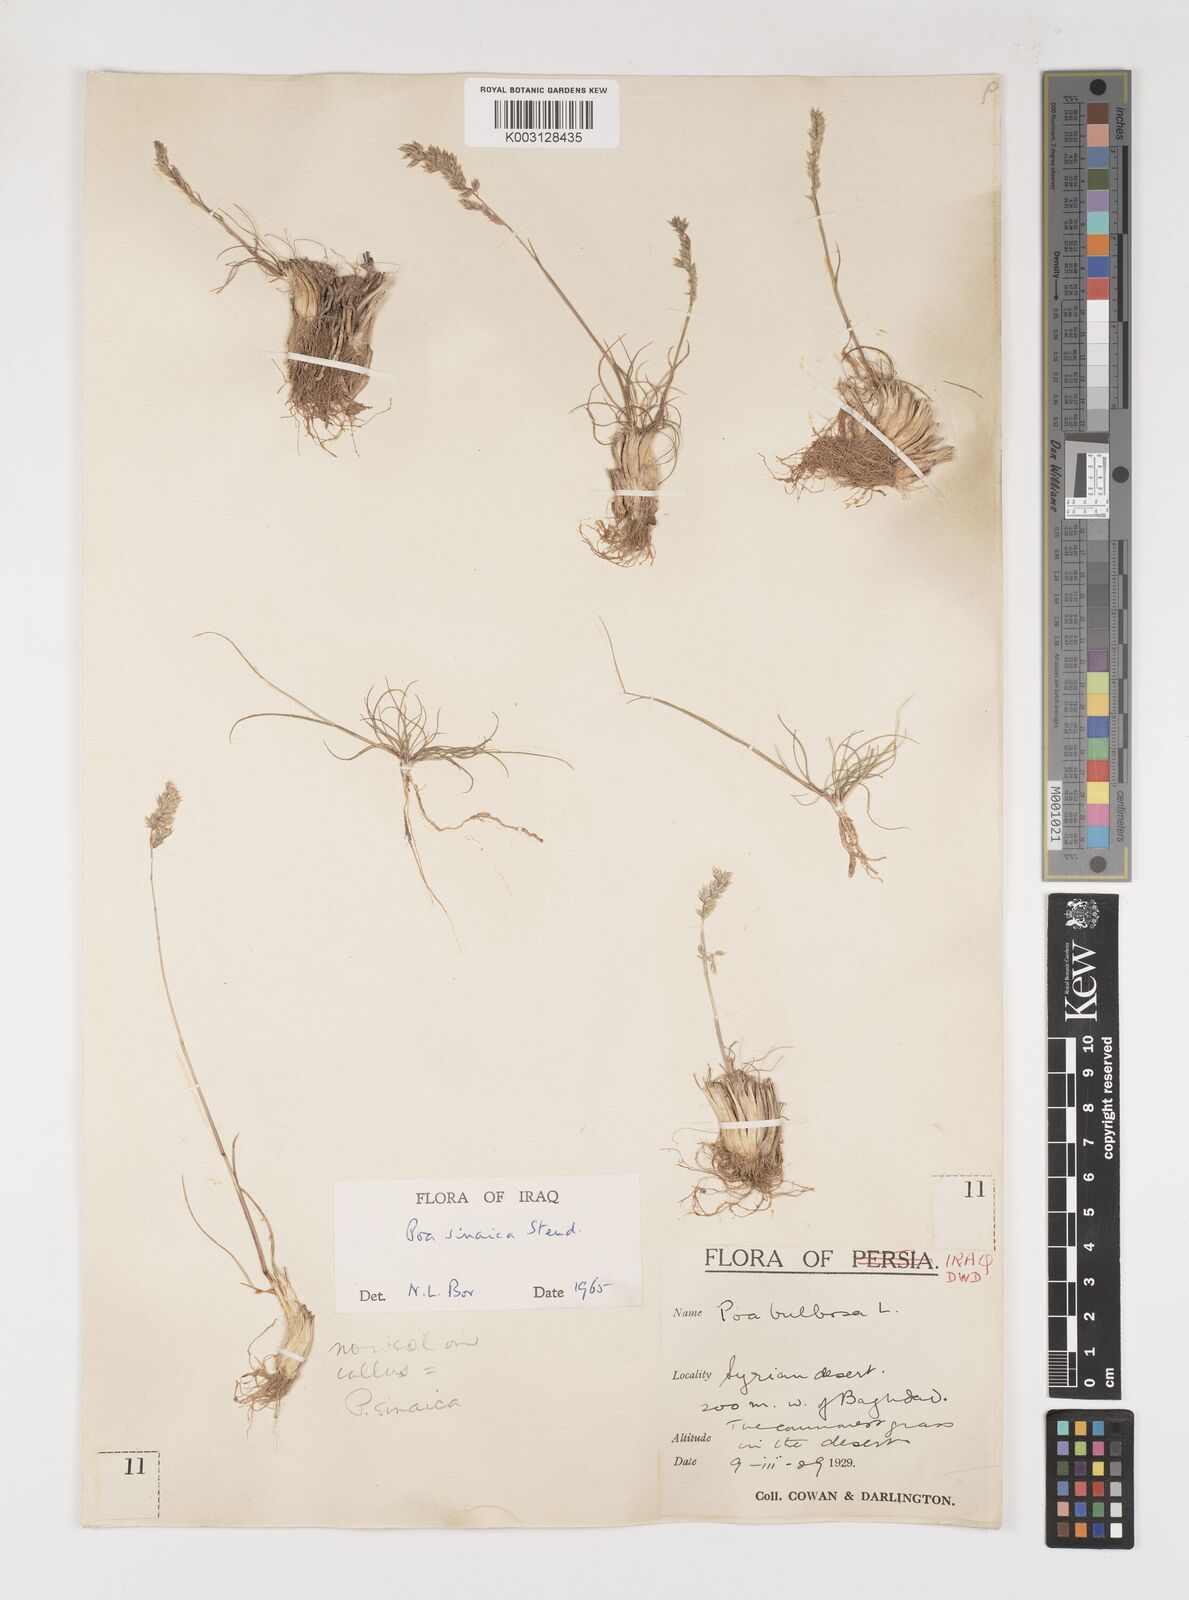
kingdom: Plantae
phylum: Tracheophyta
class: Liliopsida
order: Poales
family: Poaceae
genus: Poa
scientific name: Poa sinaica
